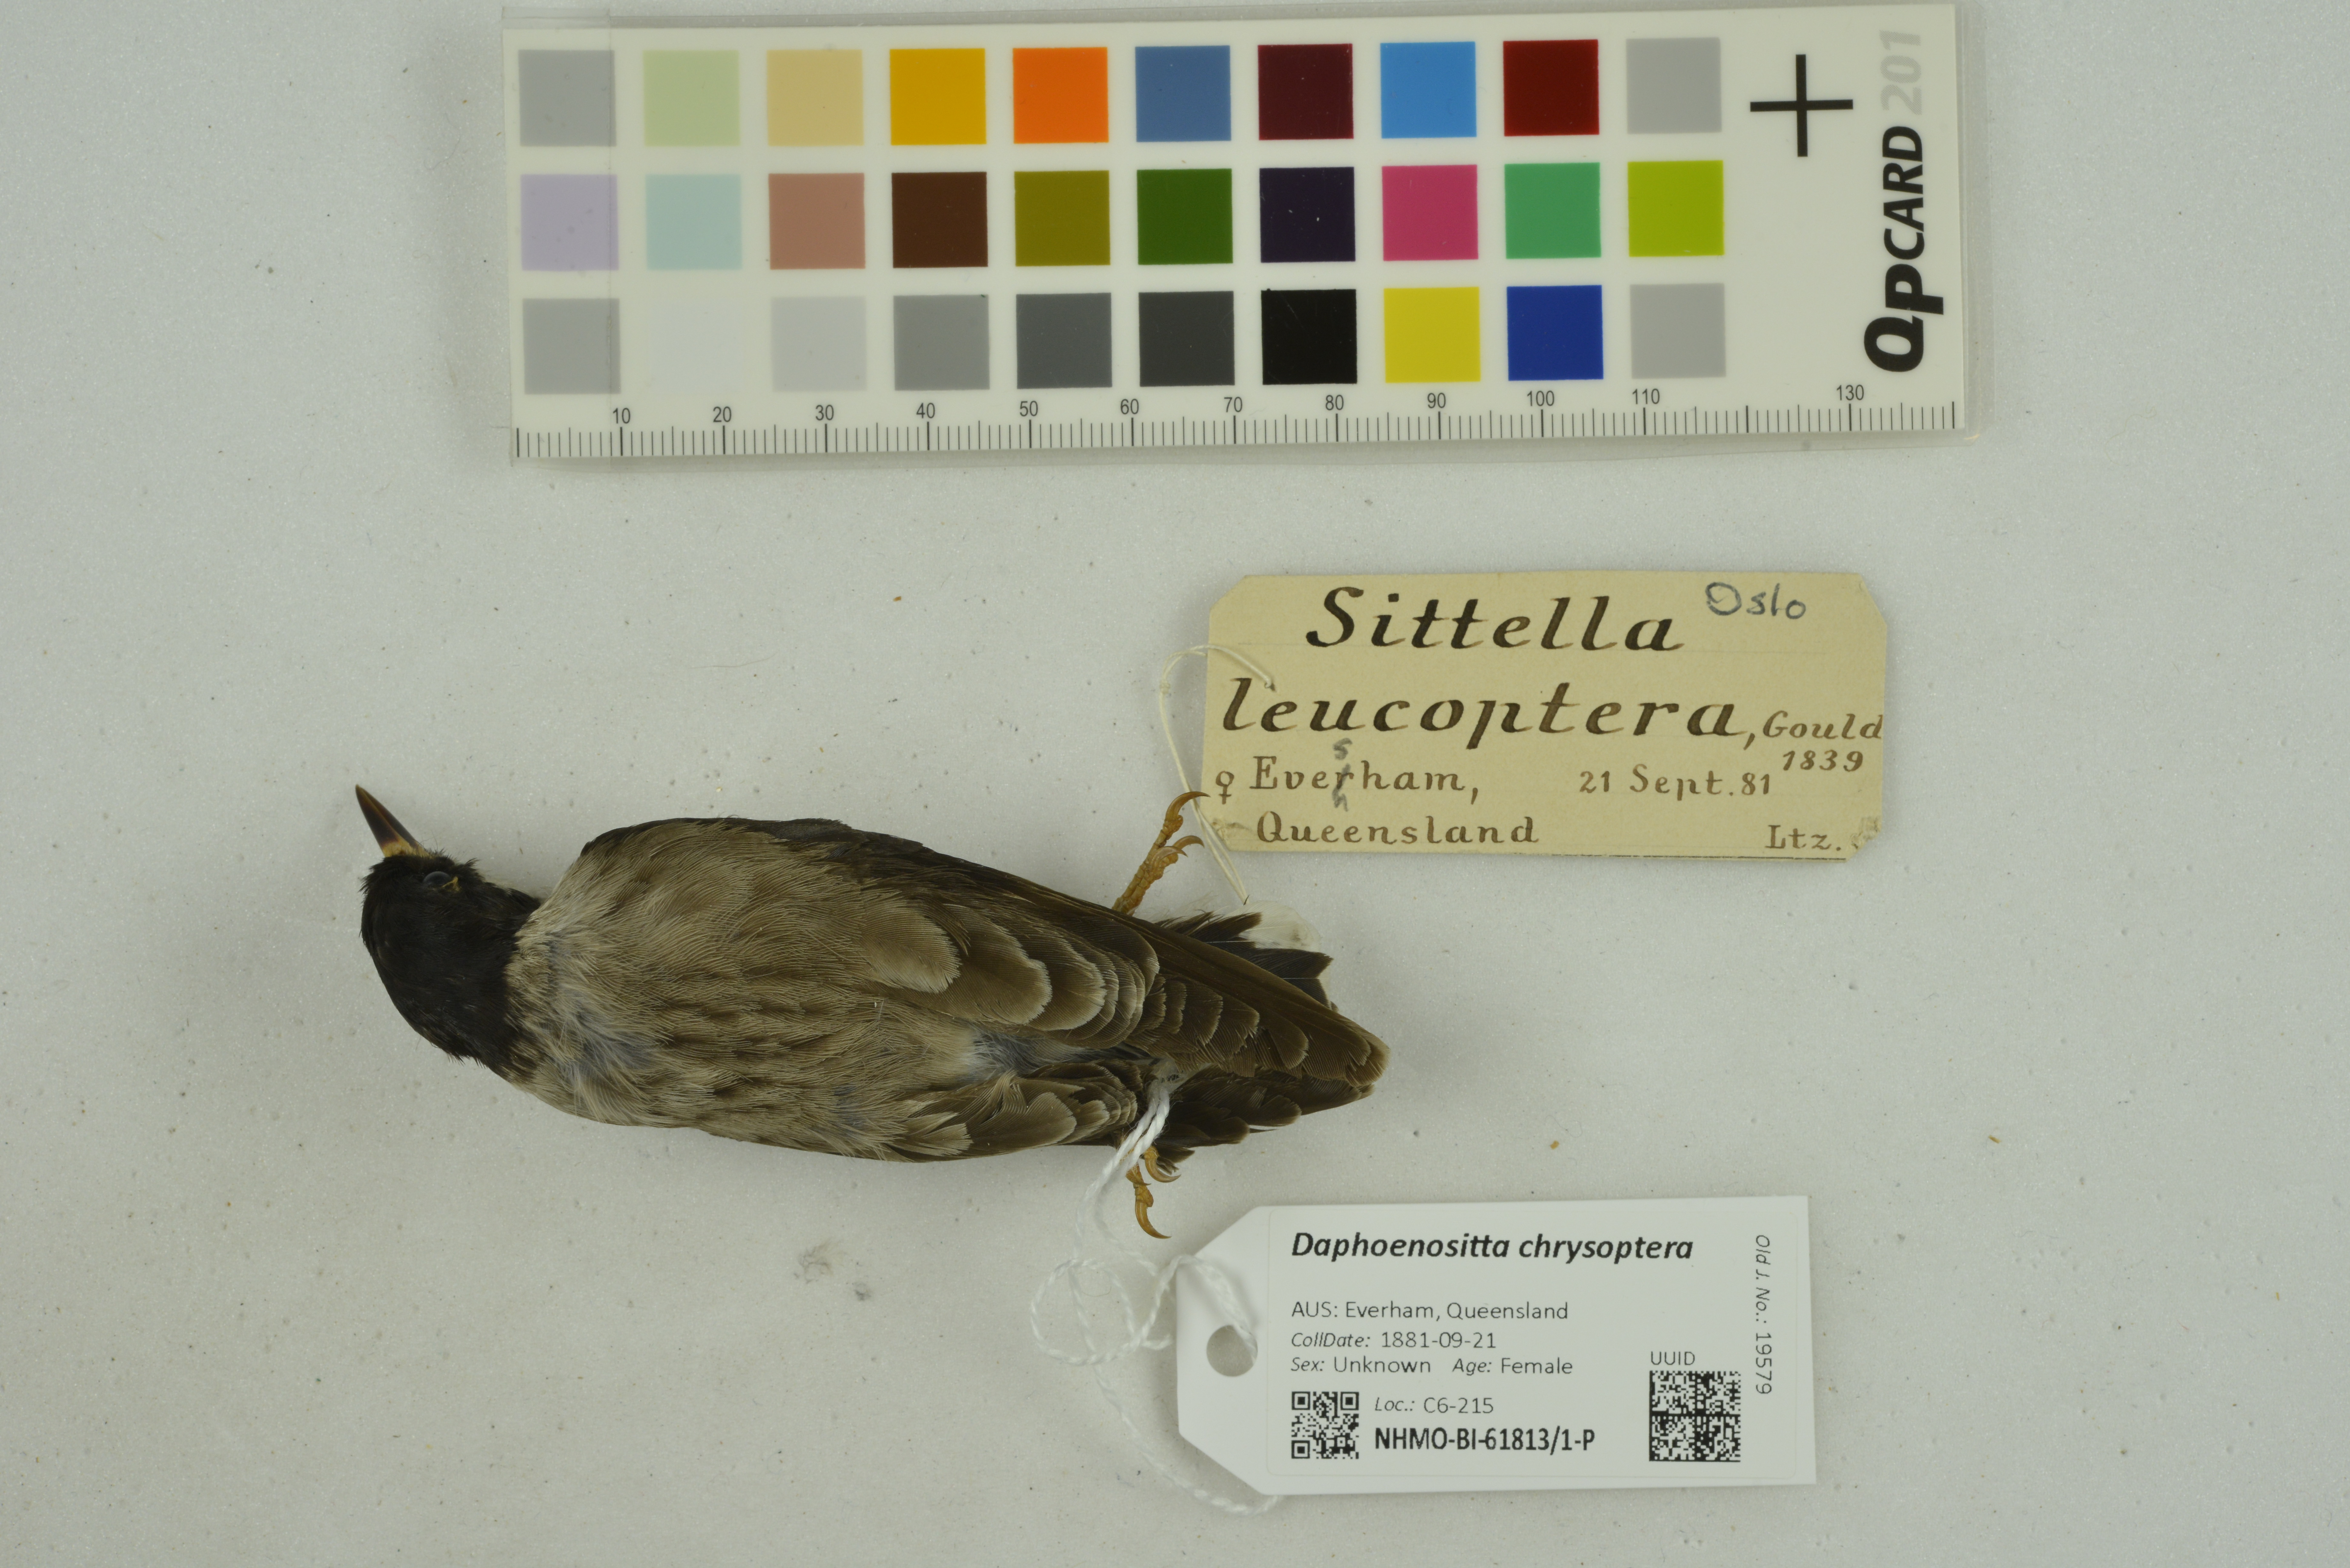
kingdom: Animalia
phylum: Chordata
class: Aves
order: Passeriformes
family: Neosittidae
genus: Daphoenositta
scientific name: Daphoenositta chrysoptera
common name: Varied sittella
